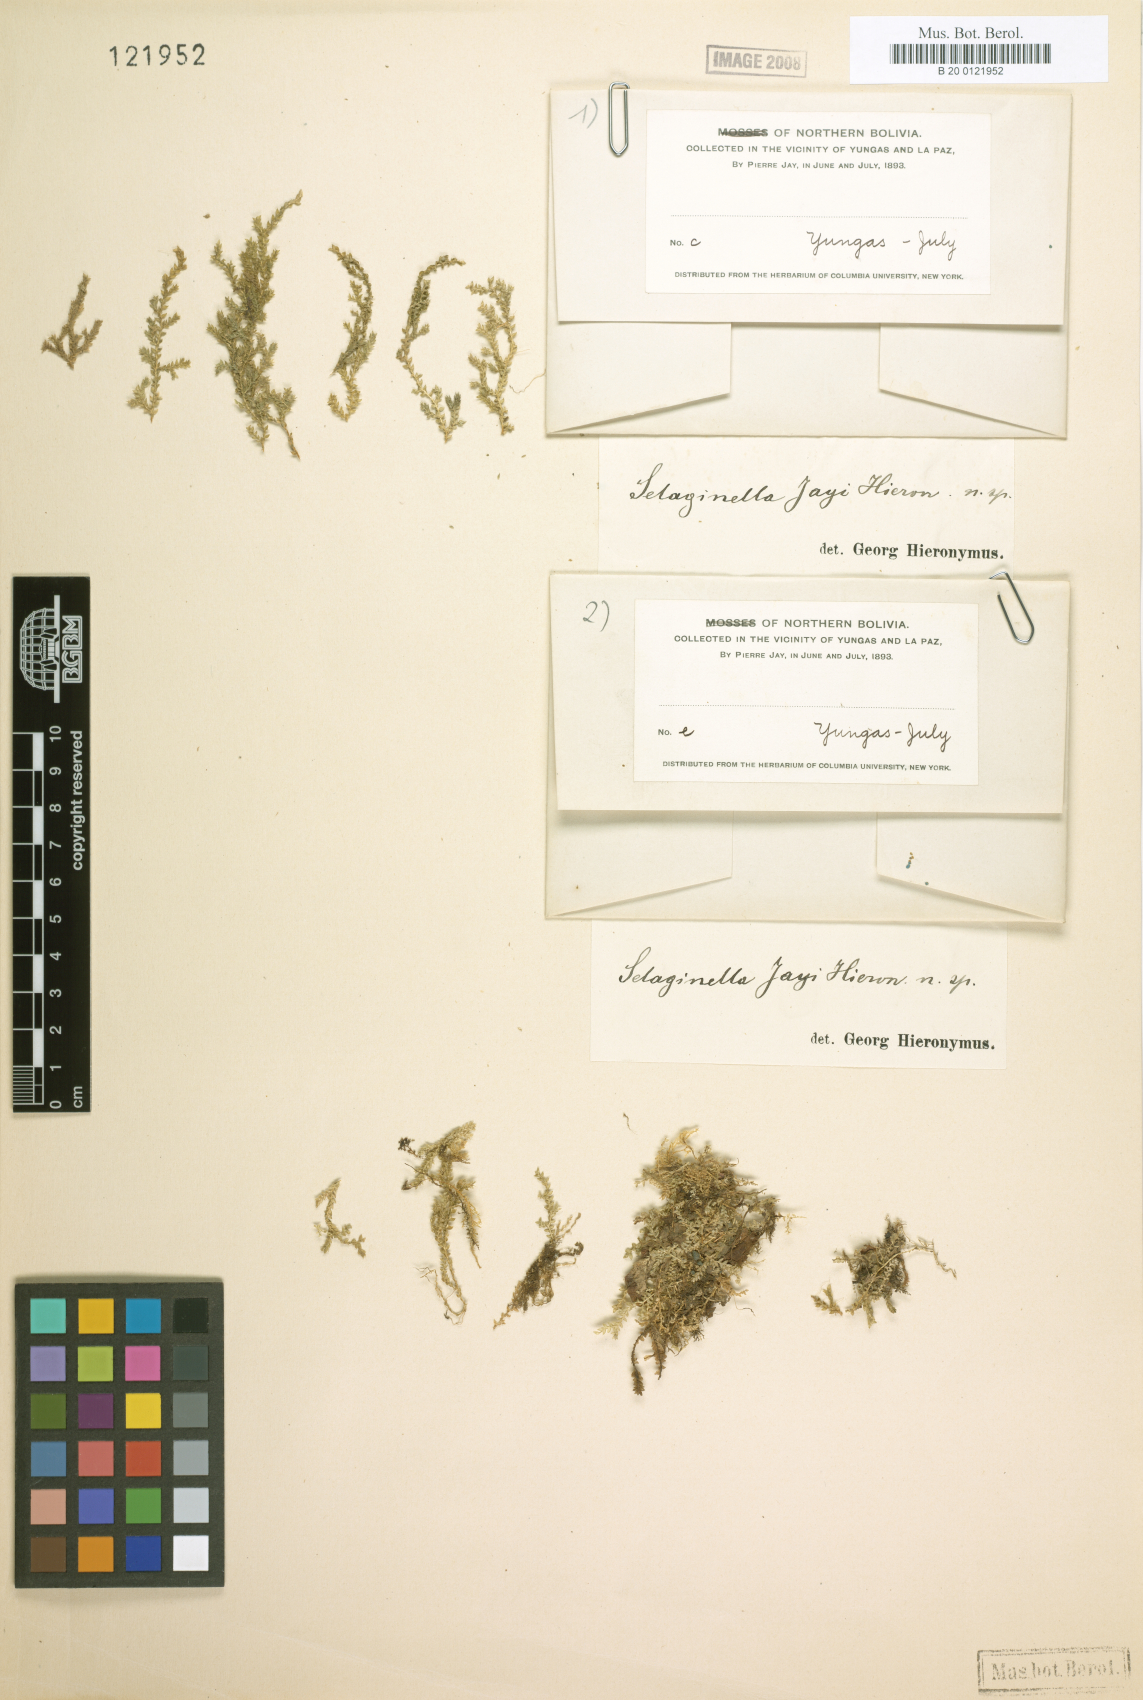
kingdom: Plantae
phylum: Tracheophyta
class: Lycopodiopsida
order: Selaginellales
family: Selaginellaceae
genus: Selaginella
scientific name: Selaginella
